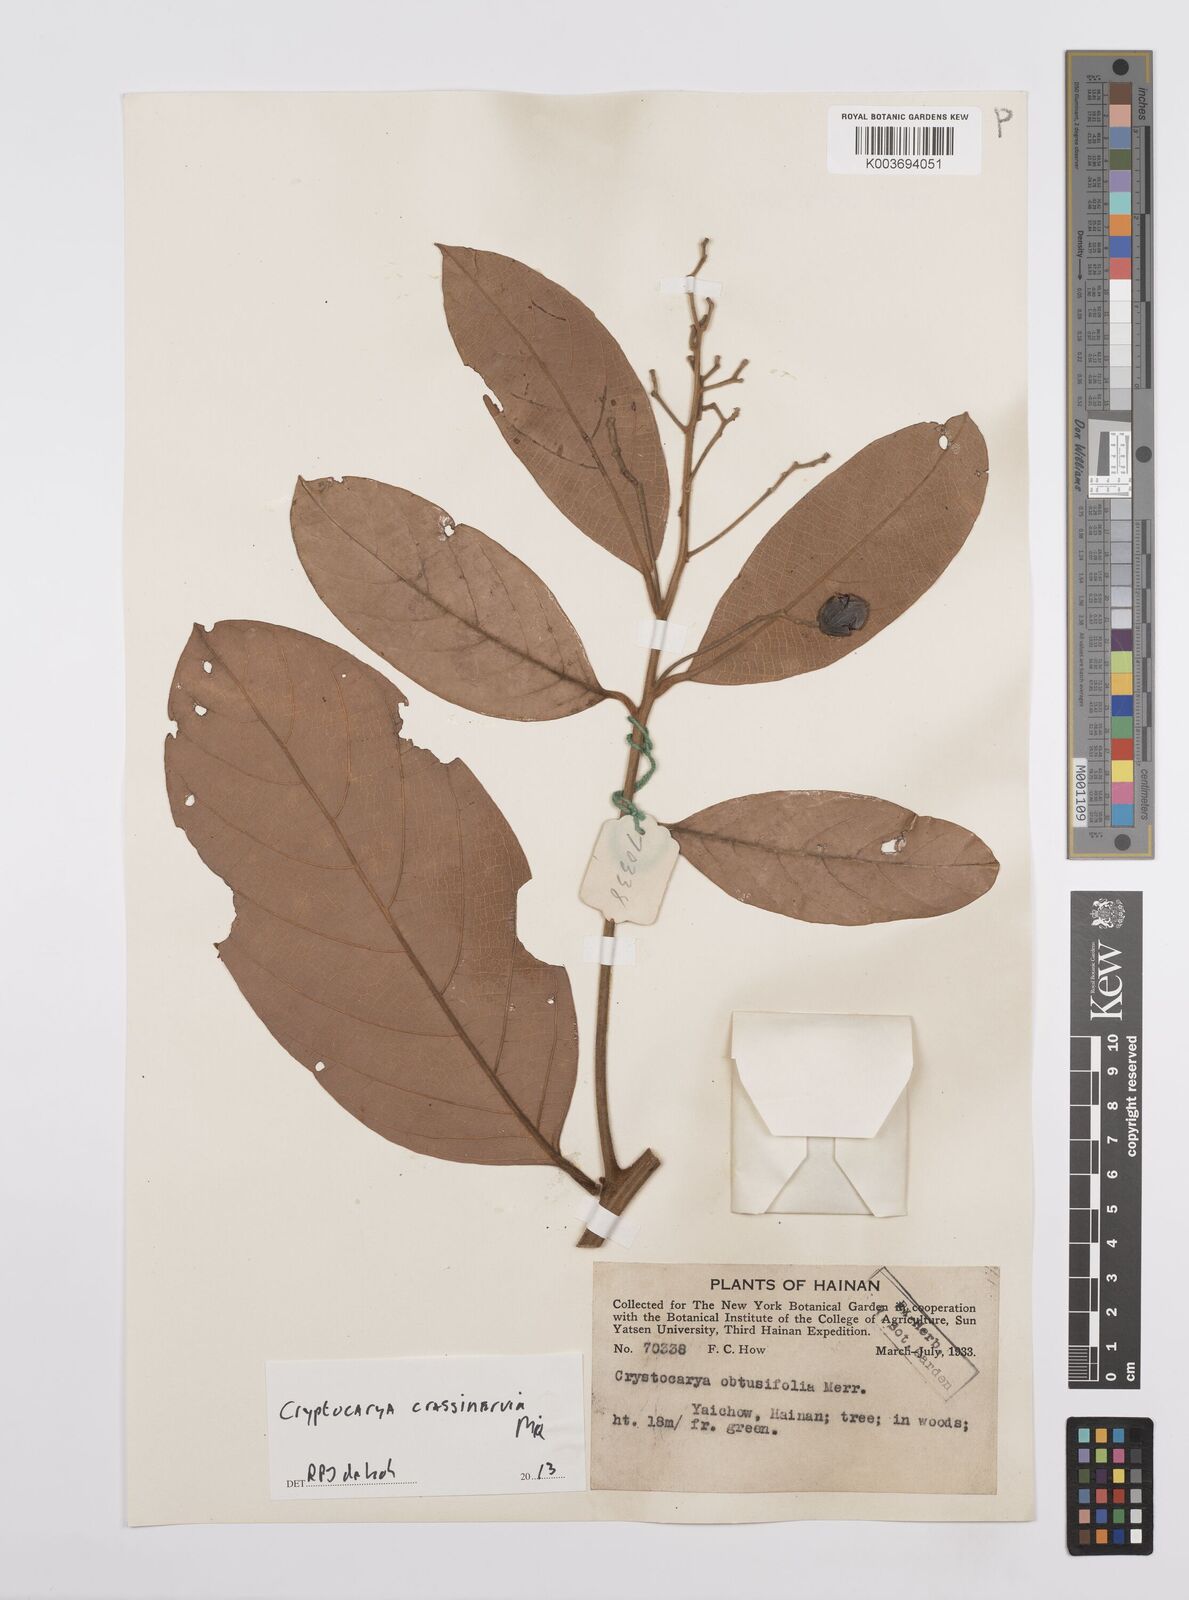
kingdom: Plantae
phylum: Tracheophyta
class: Magnoliopsida
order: Laurales
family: Lauraceae
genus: Cryptocarya
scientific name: Cryptocarya diversifolia
